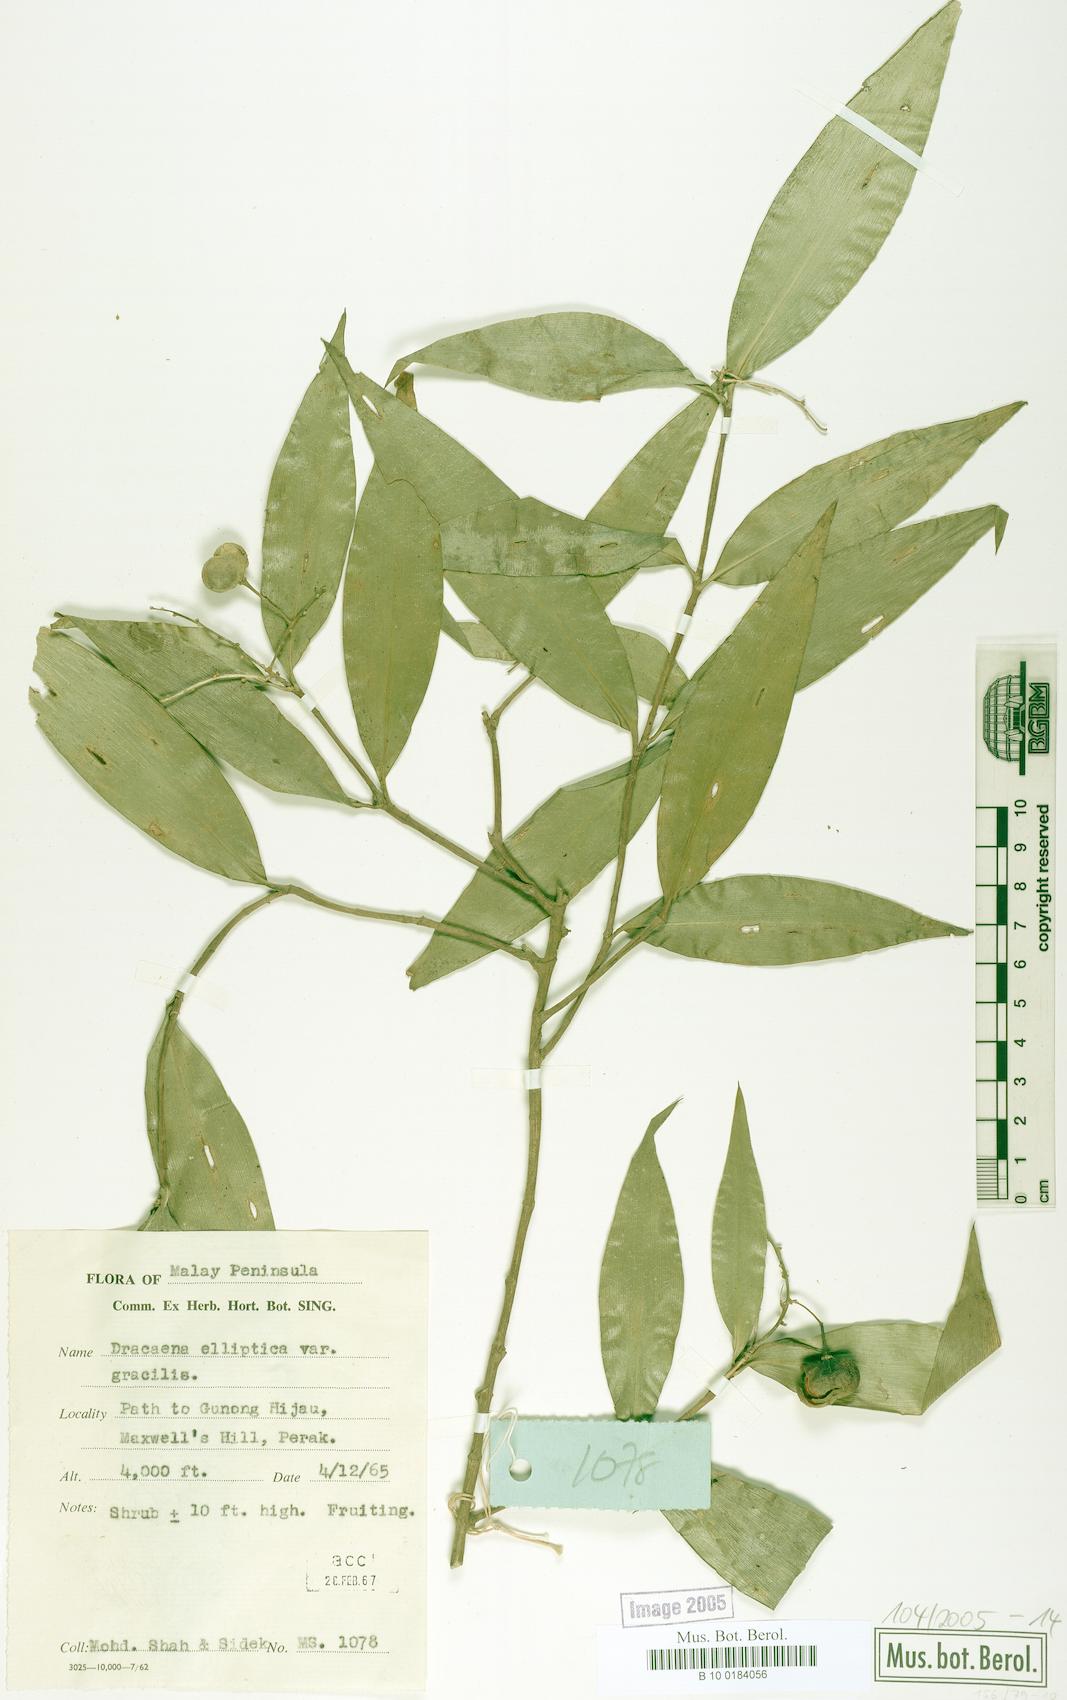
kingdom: Plantae
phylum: Tracheophyta
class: Liliopsida
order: Asparagales
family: Asparagaceae
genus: Dracaena
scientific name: Dracaena elliptica
